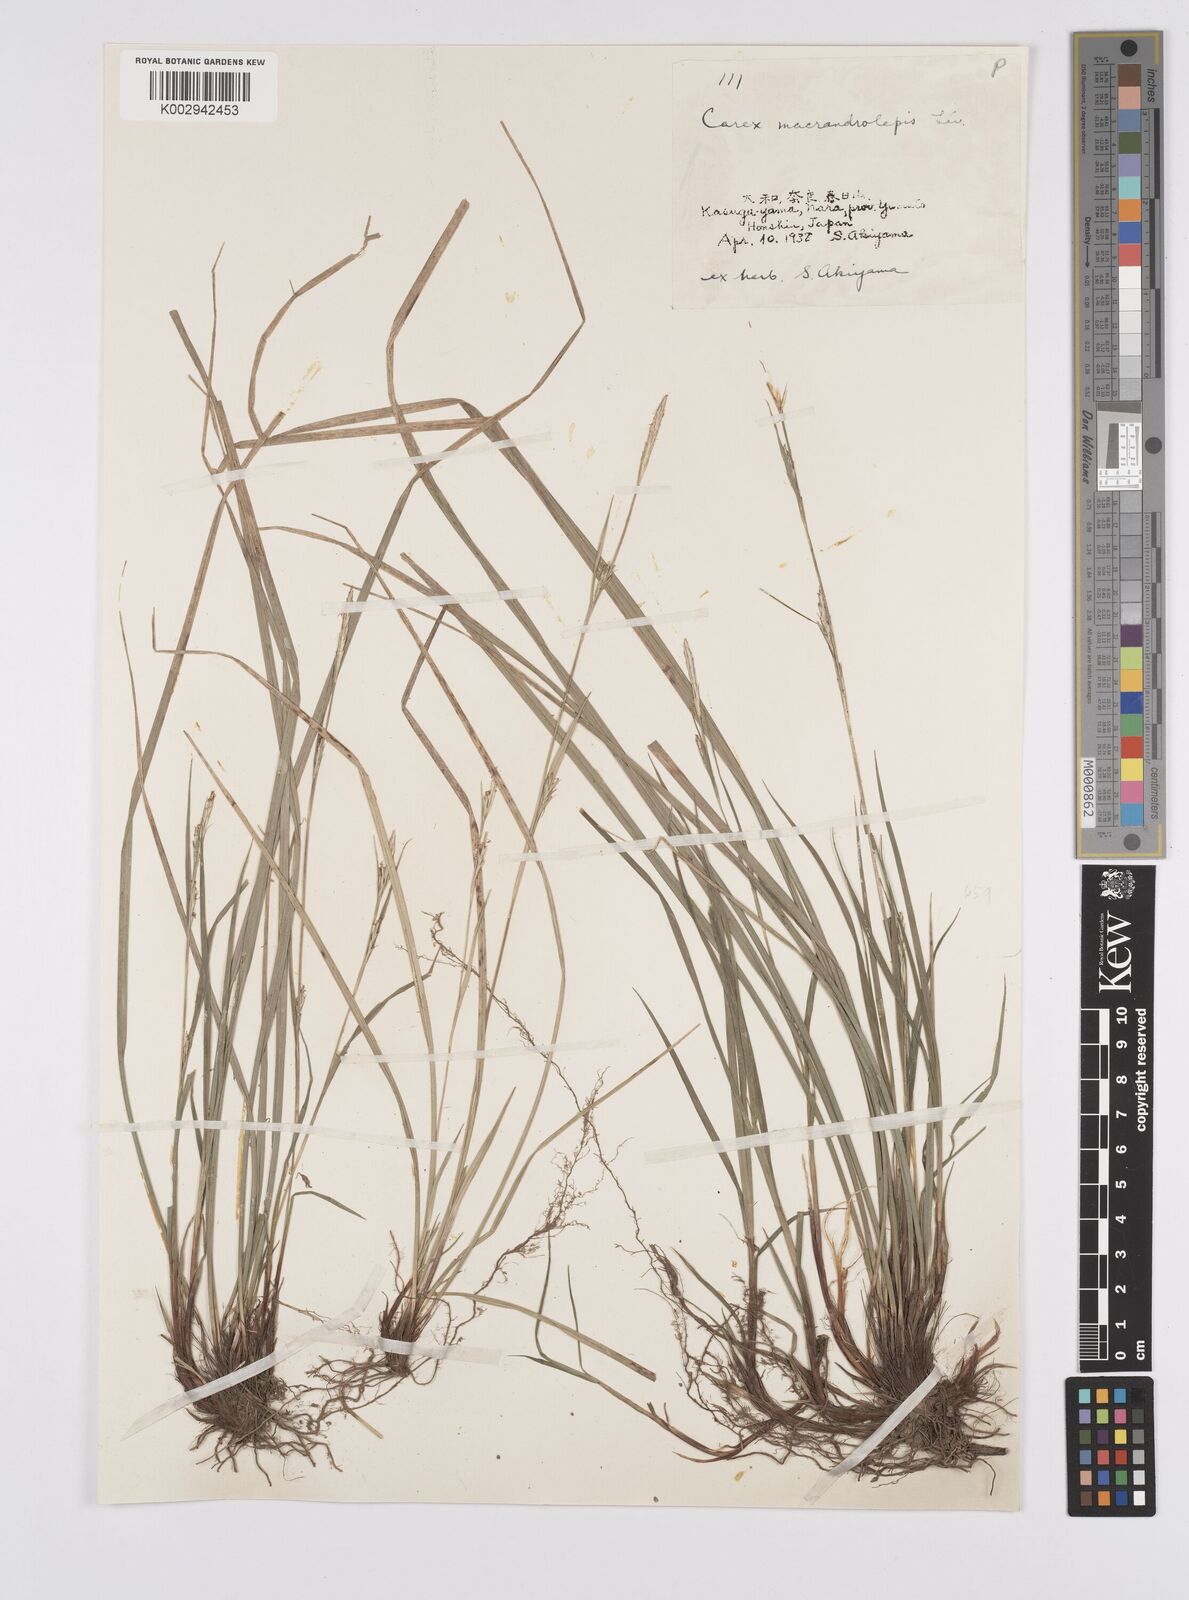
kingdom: Plantae
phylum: Tracheophyta
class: Liliopsida
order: Poales
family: Cyperaceae
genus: Carex
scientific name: Carex oxyphylla
